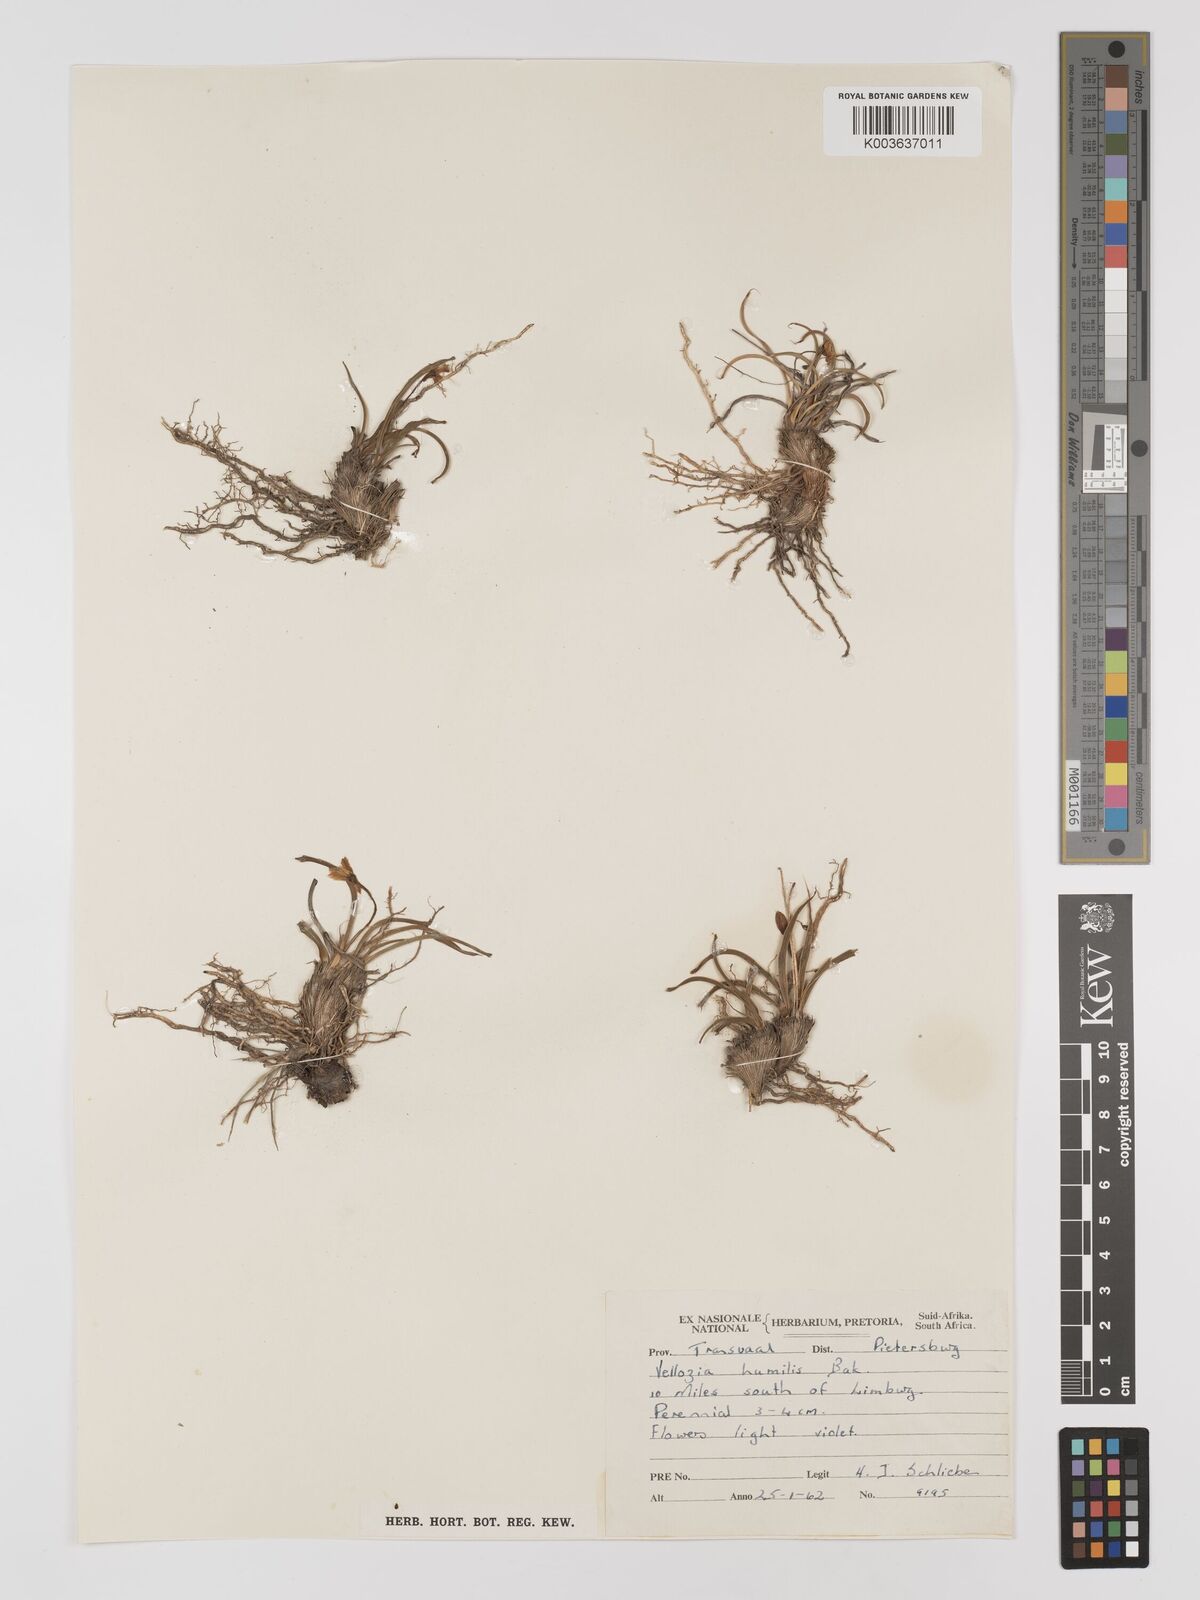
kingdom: Plantae
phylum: Tracheophyta
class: Liliopsida
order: Pandanales
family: Velloziaceae
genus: Xerophyta
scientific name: Xerophyta humilis
